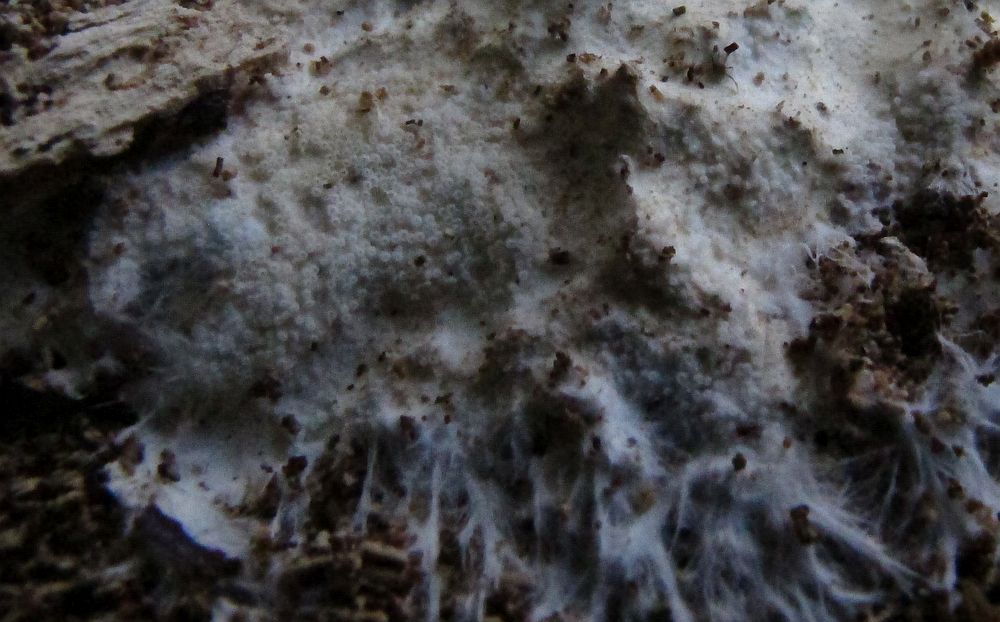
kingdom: Fungi
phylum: Basidiomycota
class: Agaricomycetes
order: Agaricales
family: Porotheleaceae
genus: Porotheleum
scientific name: Porotheleum fimbriatum
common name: poreskål
